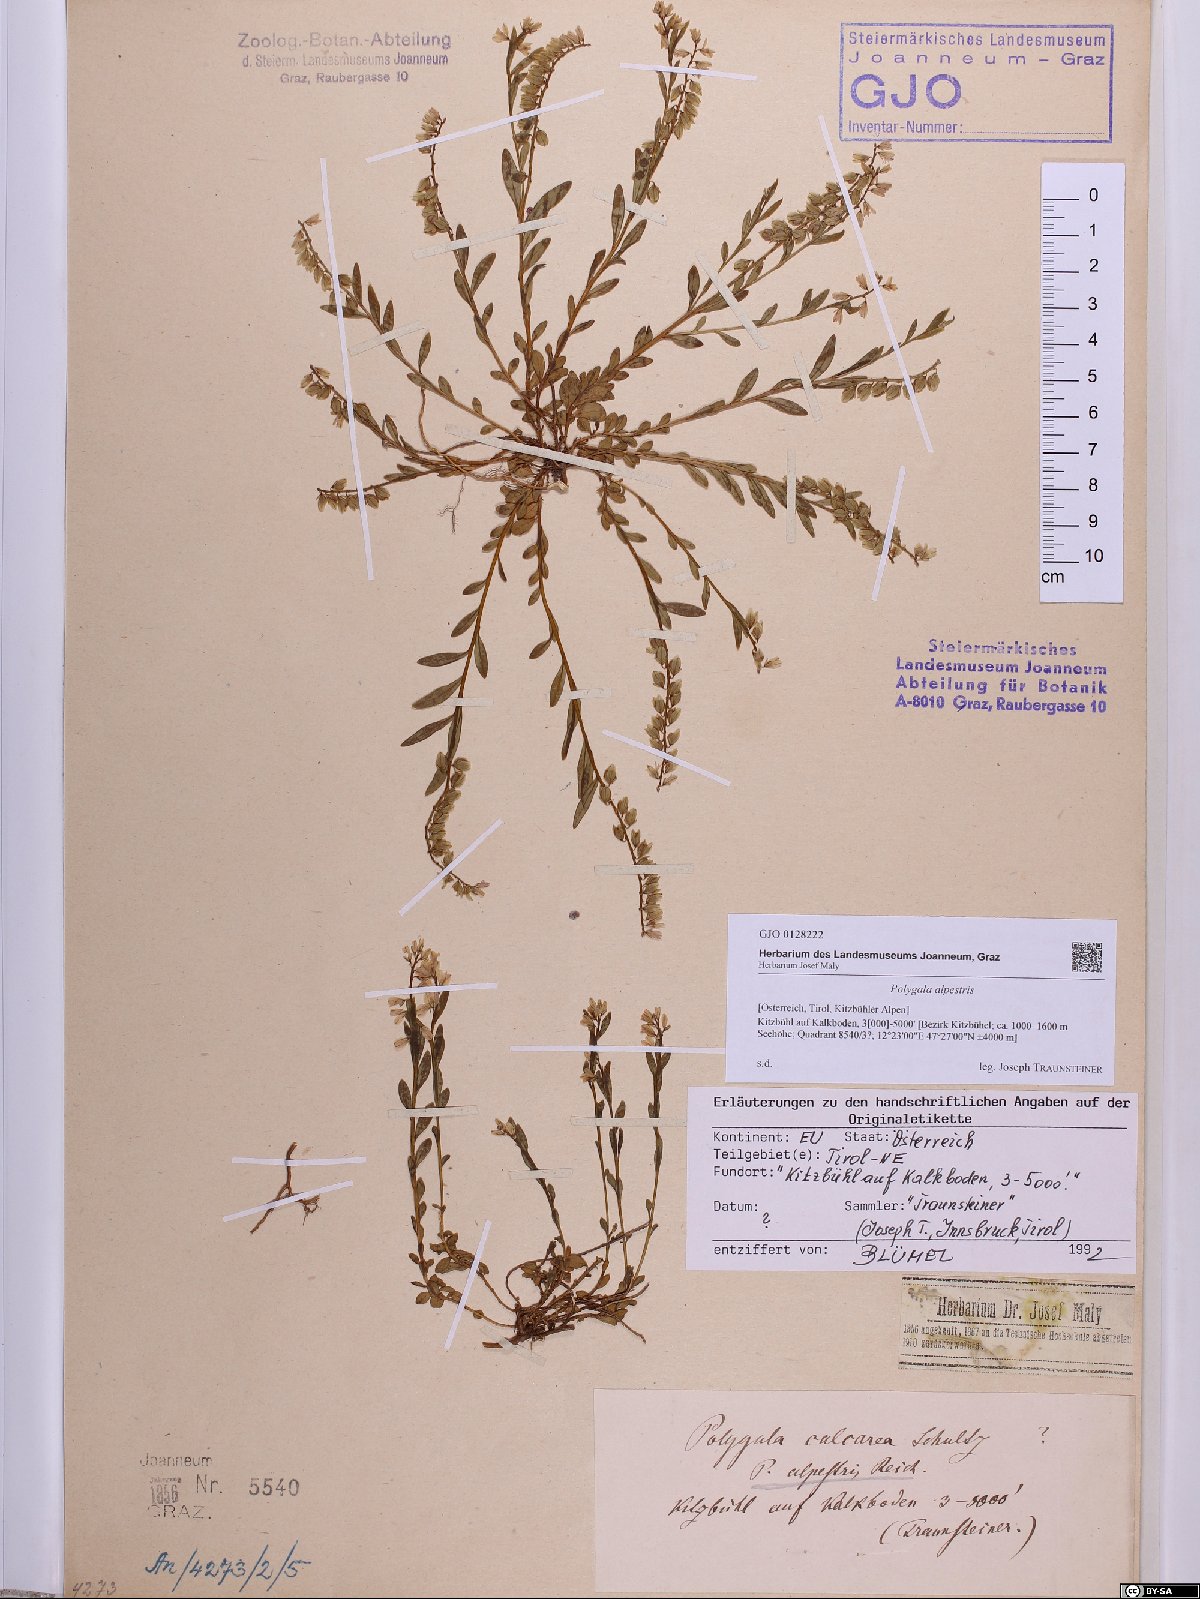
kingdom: Plantae
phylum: Tracheophyta
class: Magnoliopsida
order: Fabales
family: Polygalaceae
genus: Polygala
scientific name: Polygala alpestris
